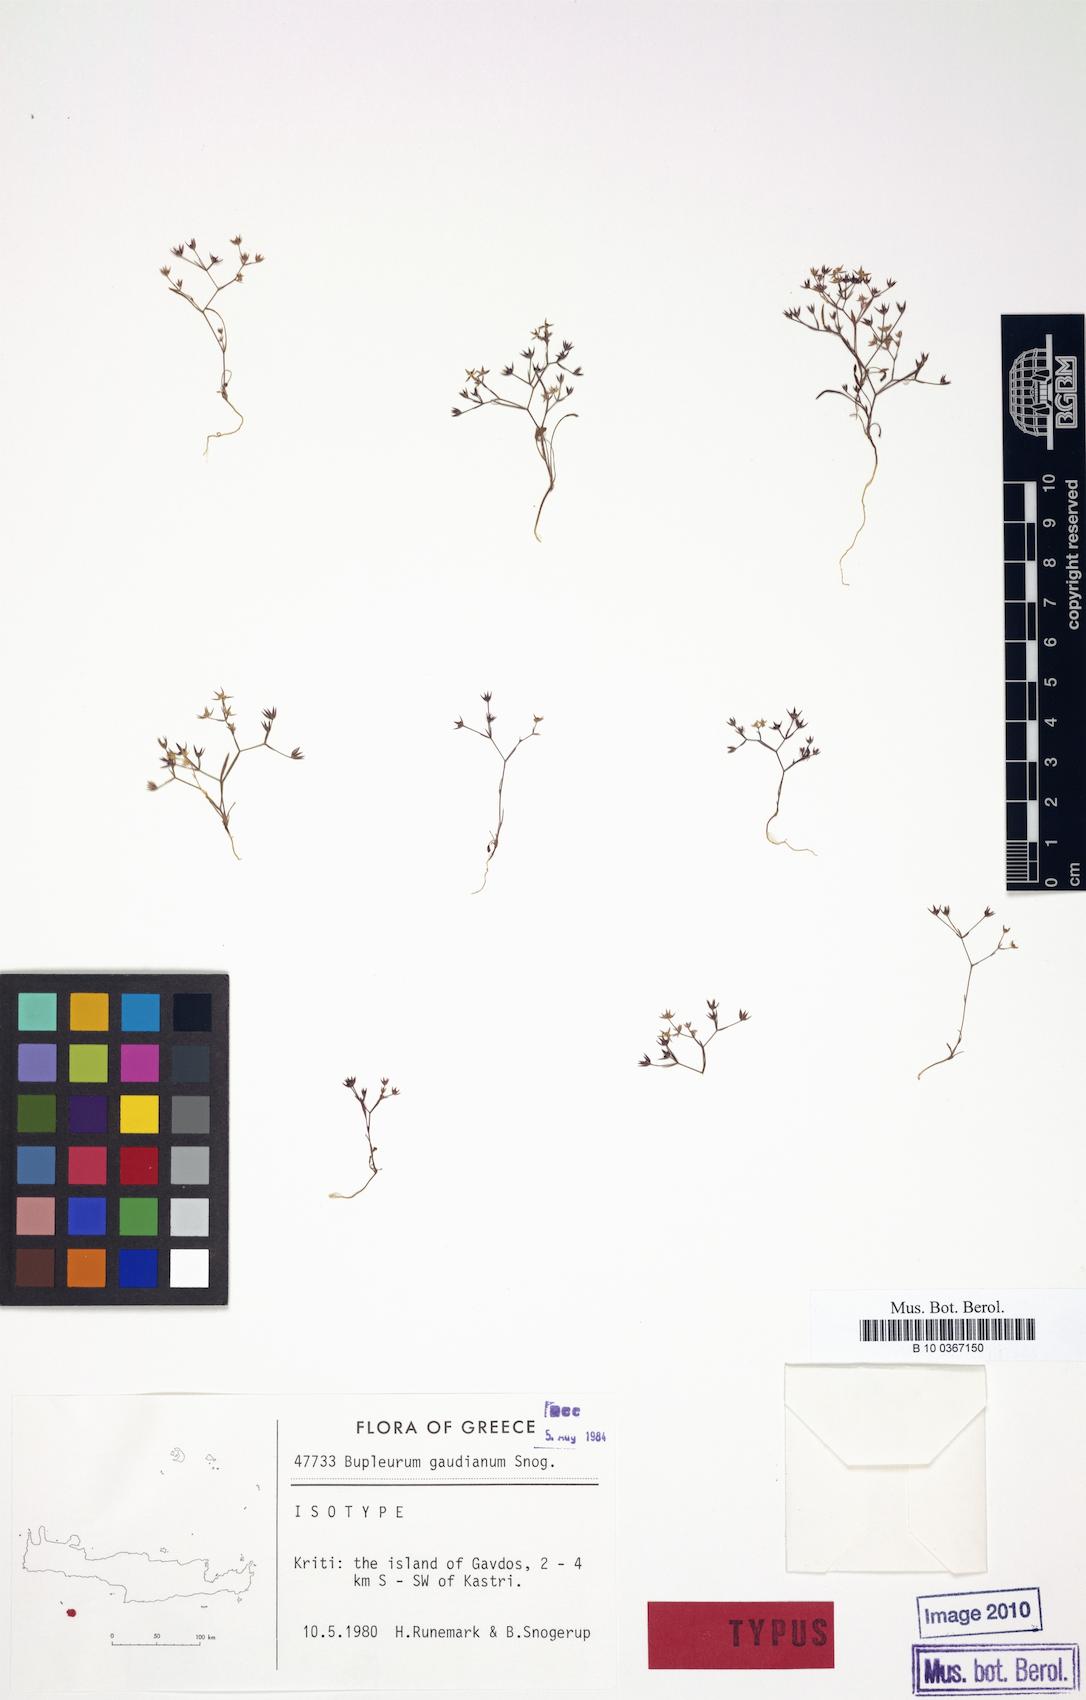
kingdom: Plantae
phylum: Tracheophyta
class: Magnoliopsida
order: Apiales
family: Apiaceae
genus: Bupleurum
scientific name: Bupleurum gaudianum
